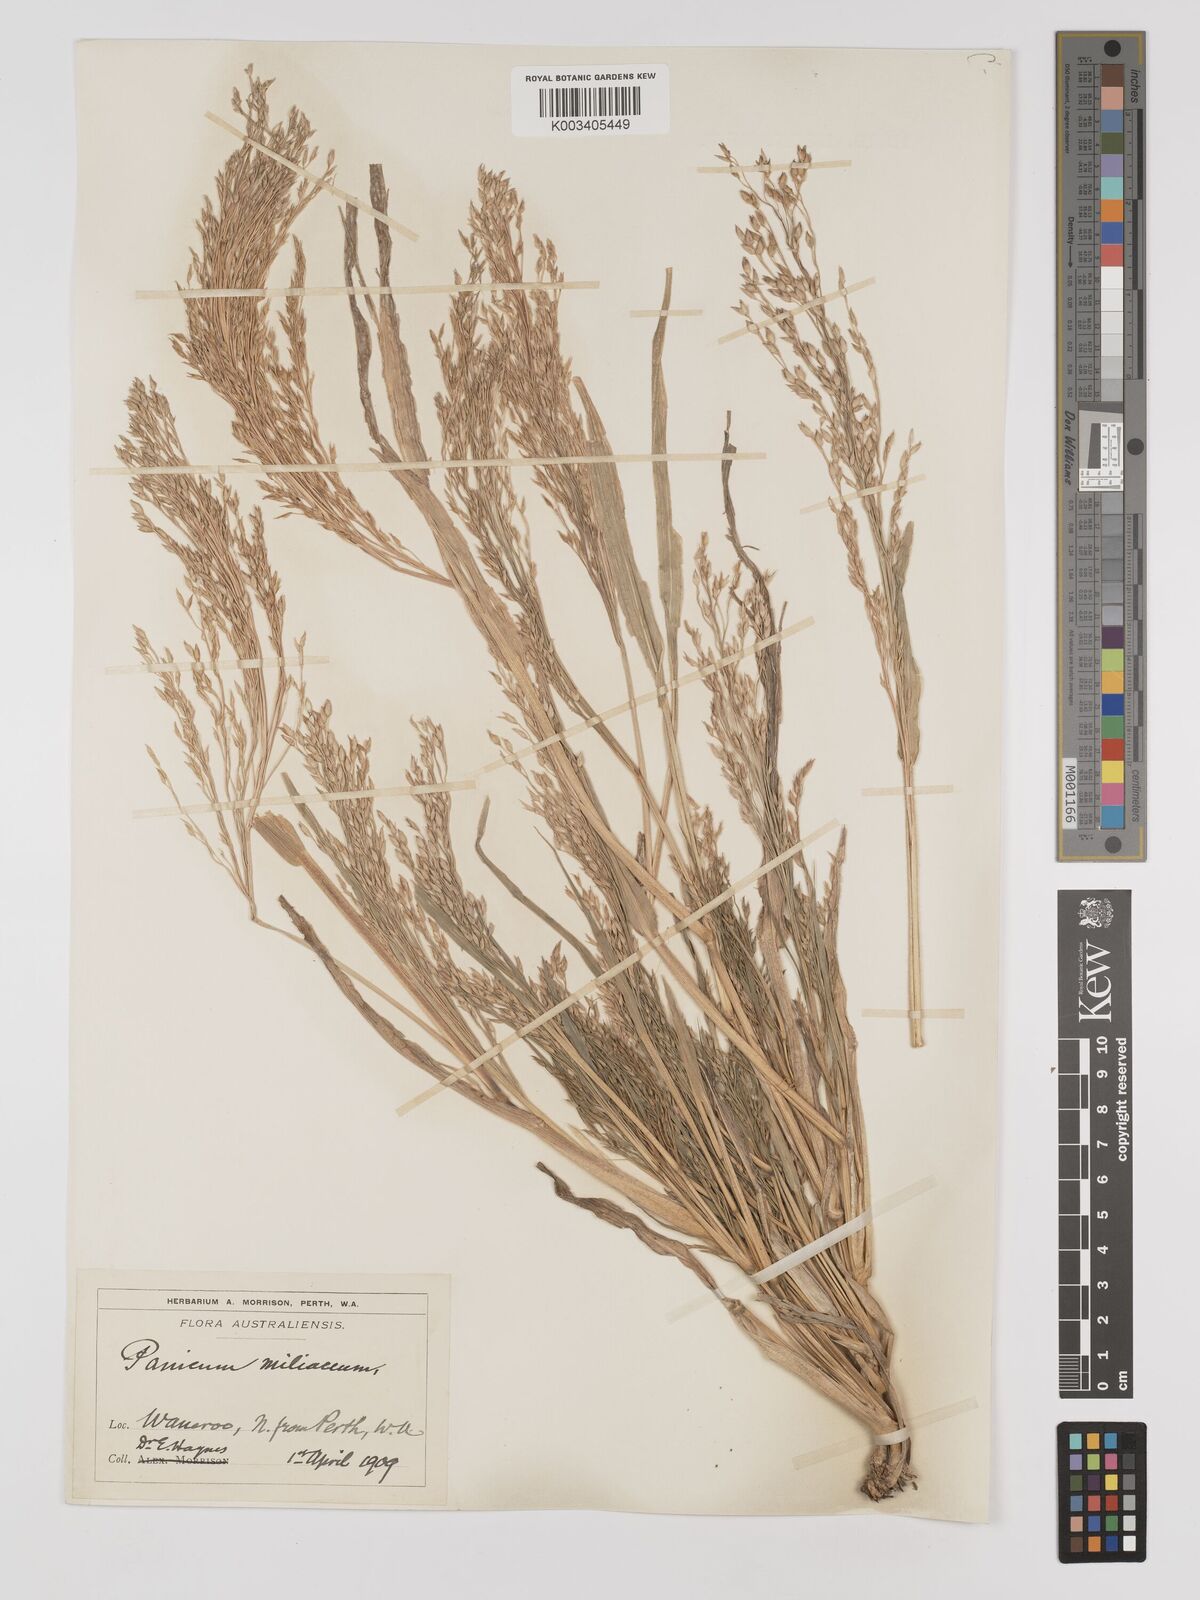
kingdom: Plantae
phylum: Tracheophyta
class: Liliopsida
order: Poales
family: Poaceae
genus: Panicum
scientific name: Panicum miliaceum
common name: Common millet
